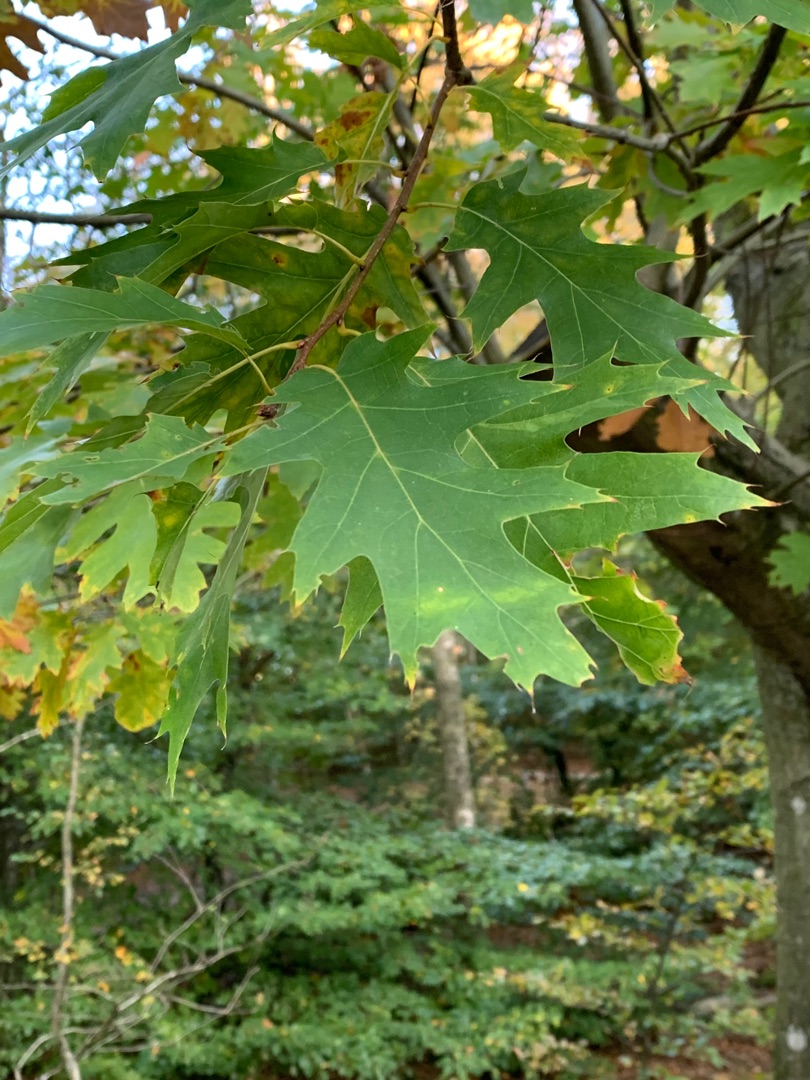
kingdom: Plantae
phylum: Tracheophyta
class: Magnoliopsida
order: Fagales
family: Fagaceae
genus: Quercus
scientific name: Quercus rubra
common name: Rød-eg
